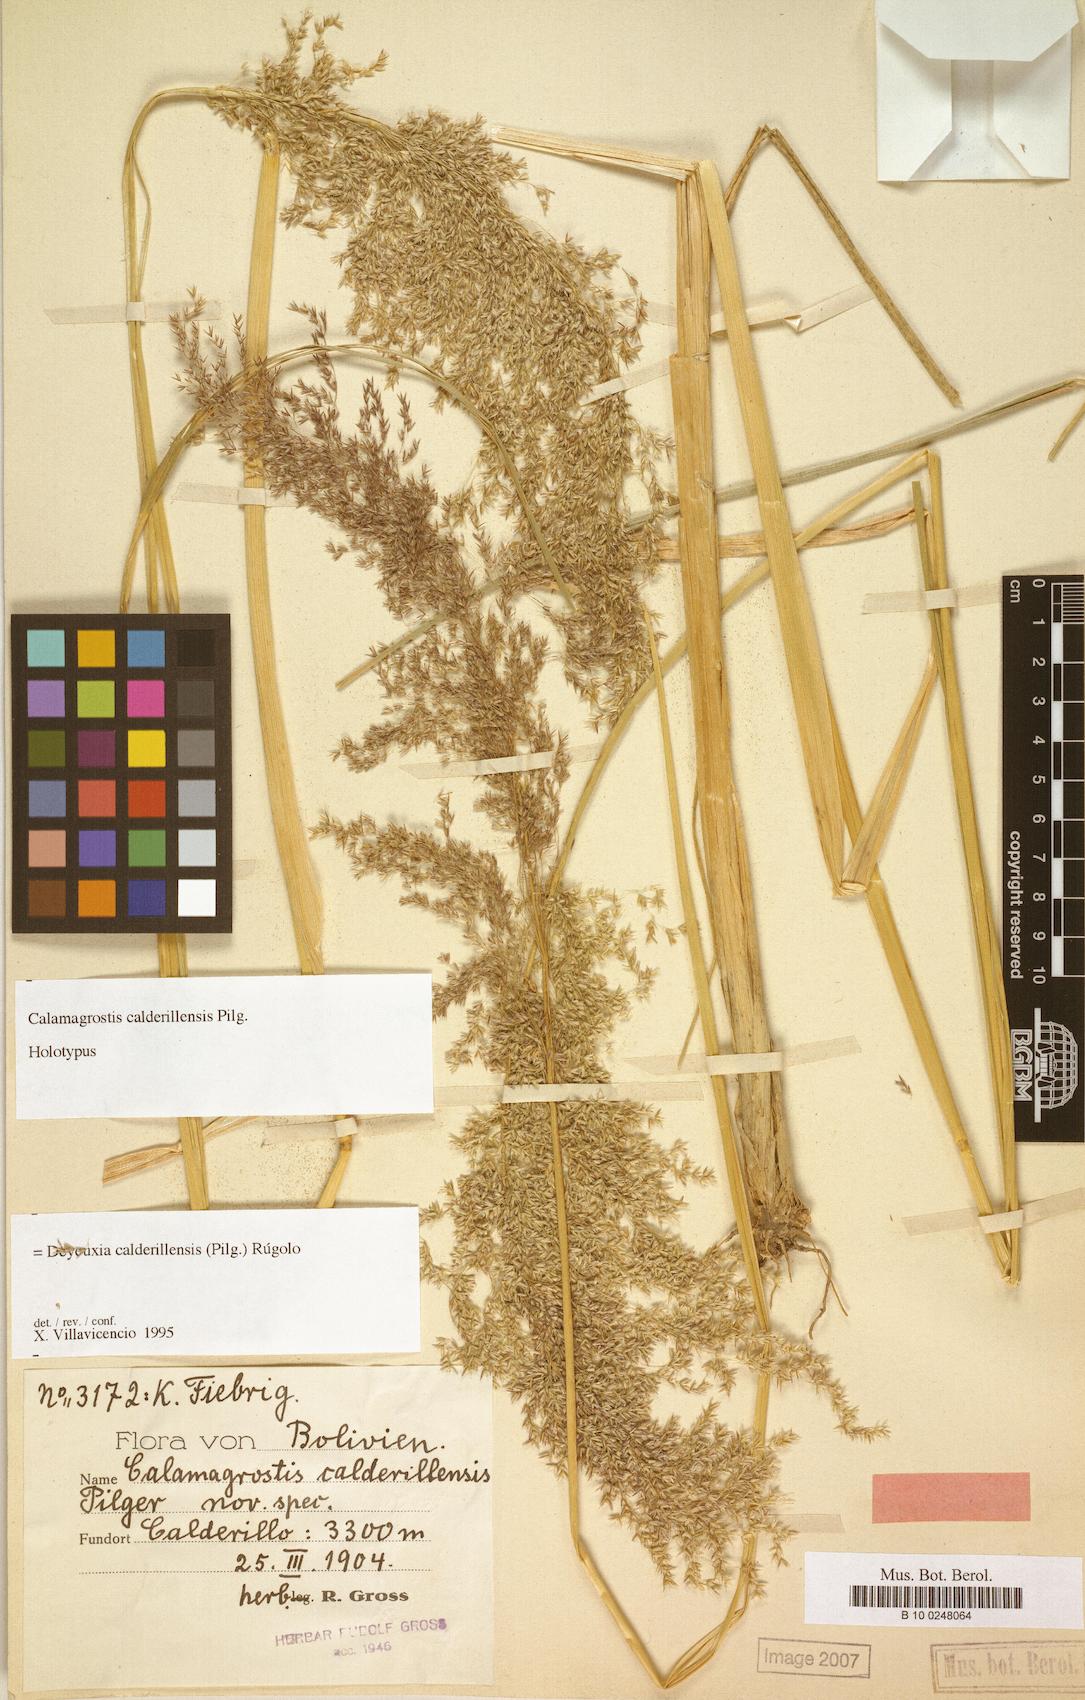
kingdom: Plantae
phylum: Tracheophyta
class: Liliopsida
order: Poales
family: Poaceae
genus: Cinnagrostis
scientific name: Cinnagrostis calderillensis
